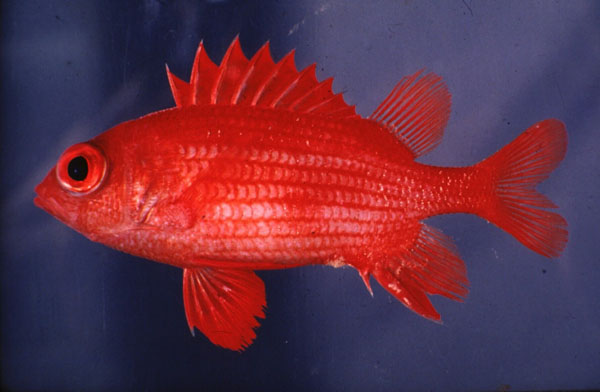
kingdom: Animalia
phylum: Chordata
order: Beryciformes
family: Holocentridae
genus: Sargocentron
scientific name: Sargocentron inaequalis
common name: Lattice squirrelfish
